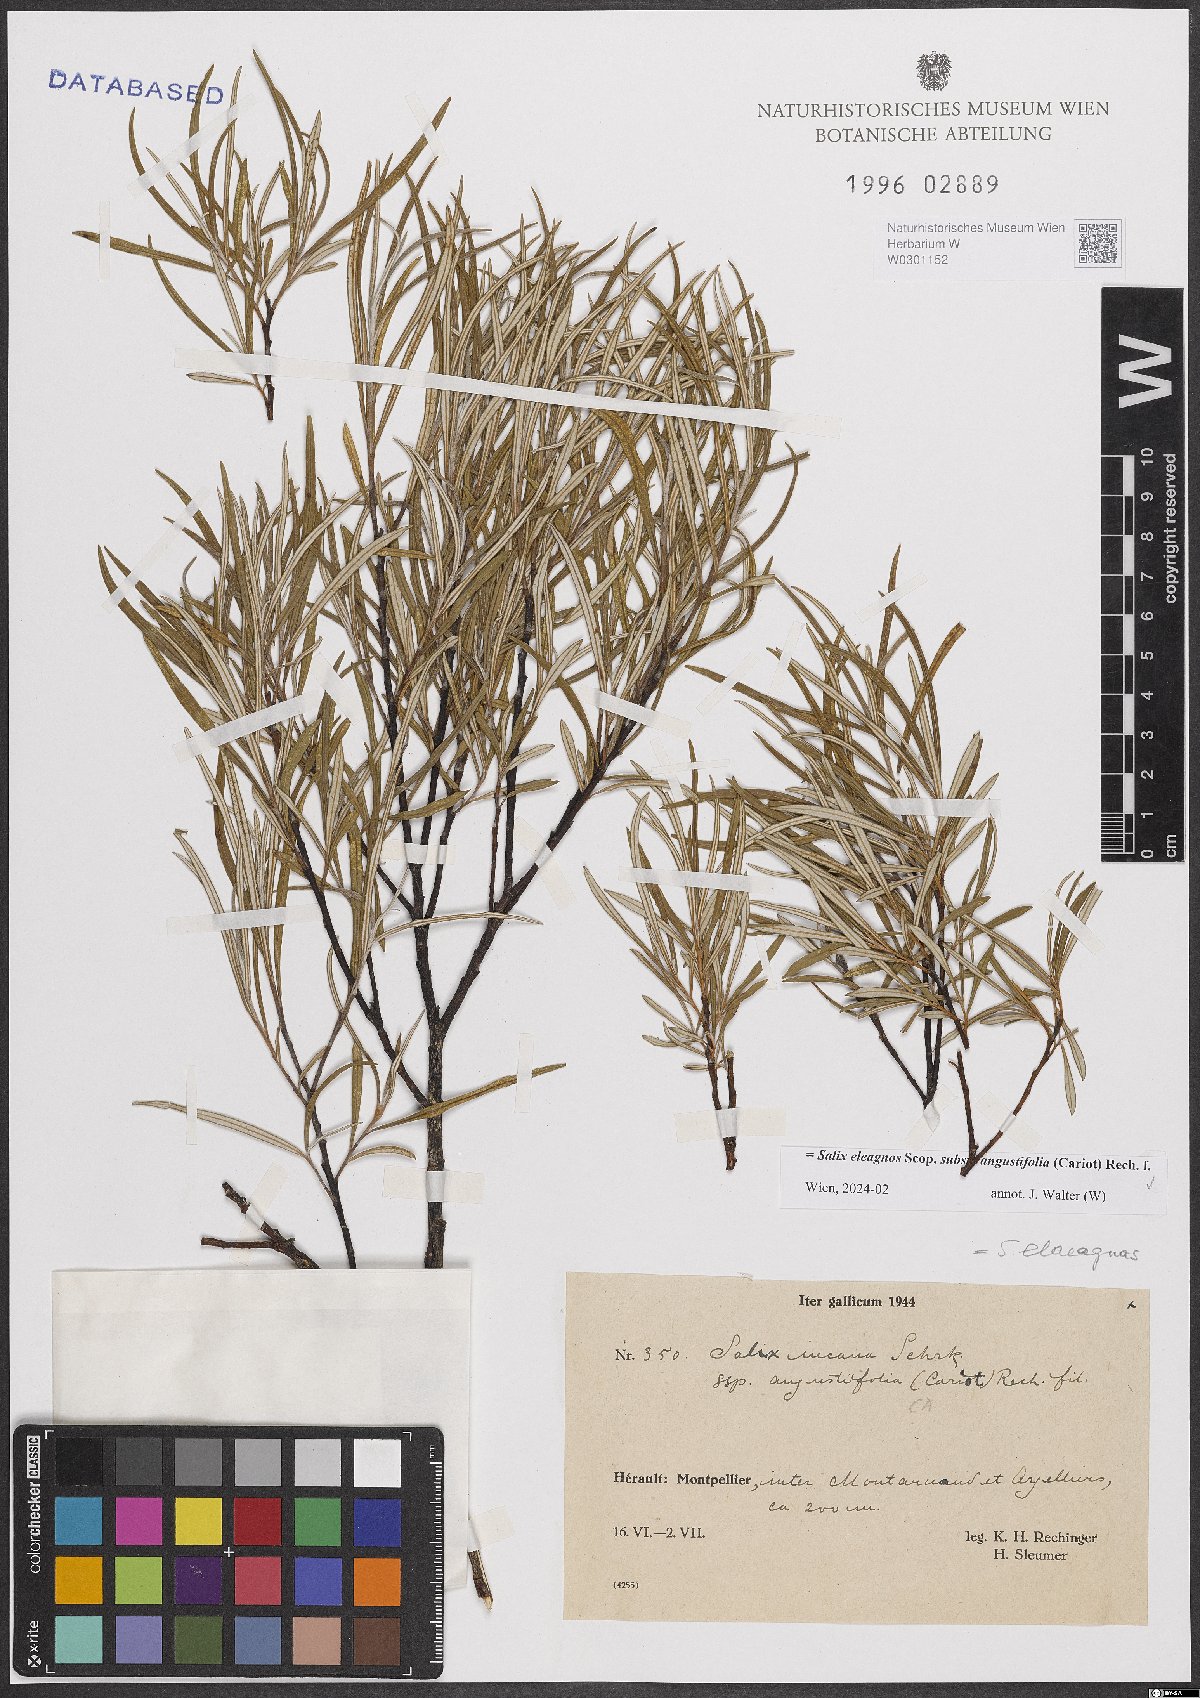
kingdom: Plantae
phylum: Tracheophyta
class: Magnoliopsida
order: Malpighiales
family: Salicaceae
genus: Salix
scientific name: Salix eleagnos
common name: Elaeagnus willow
